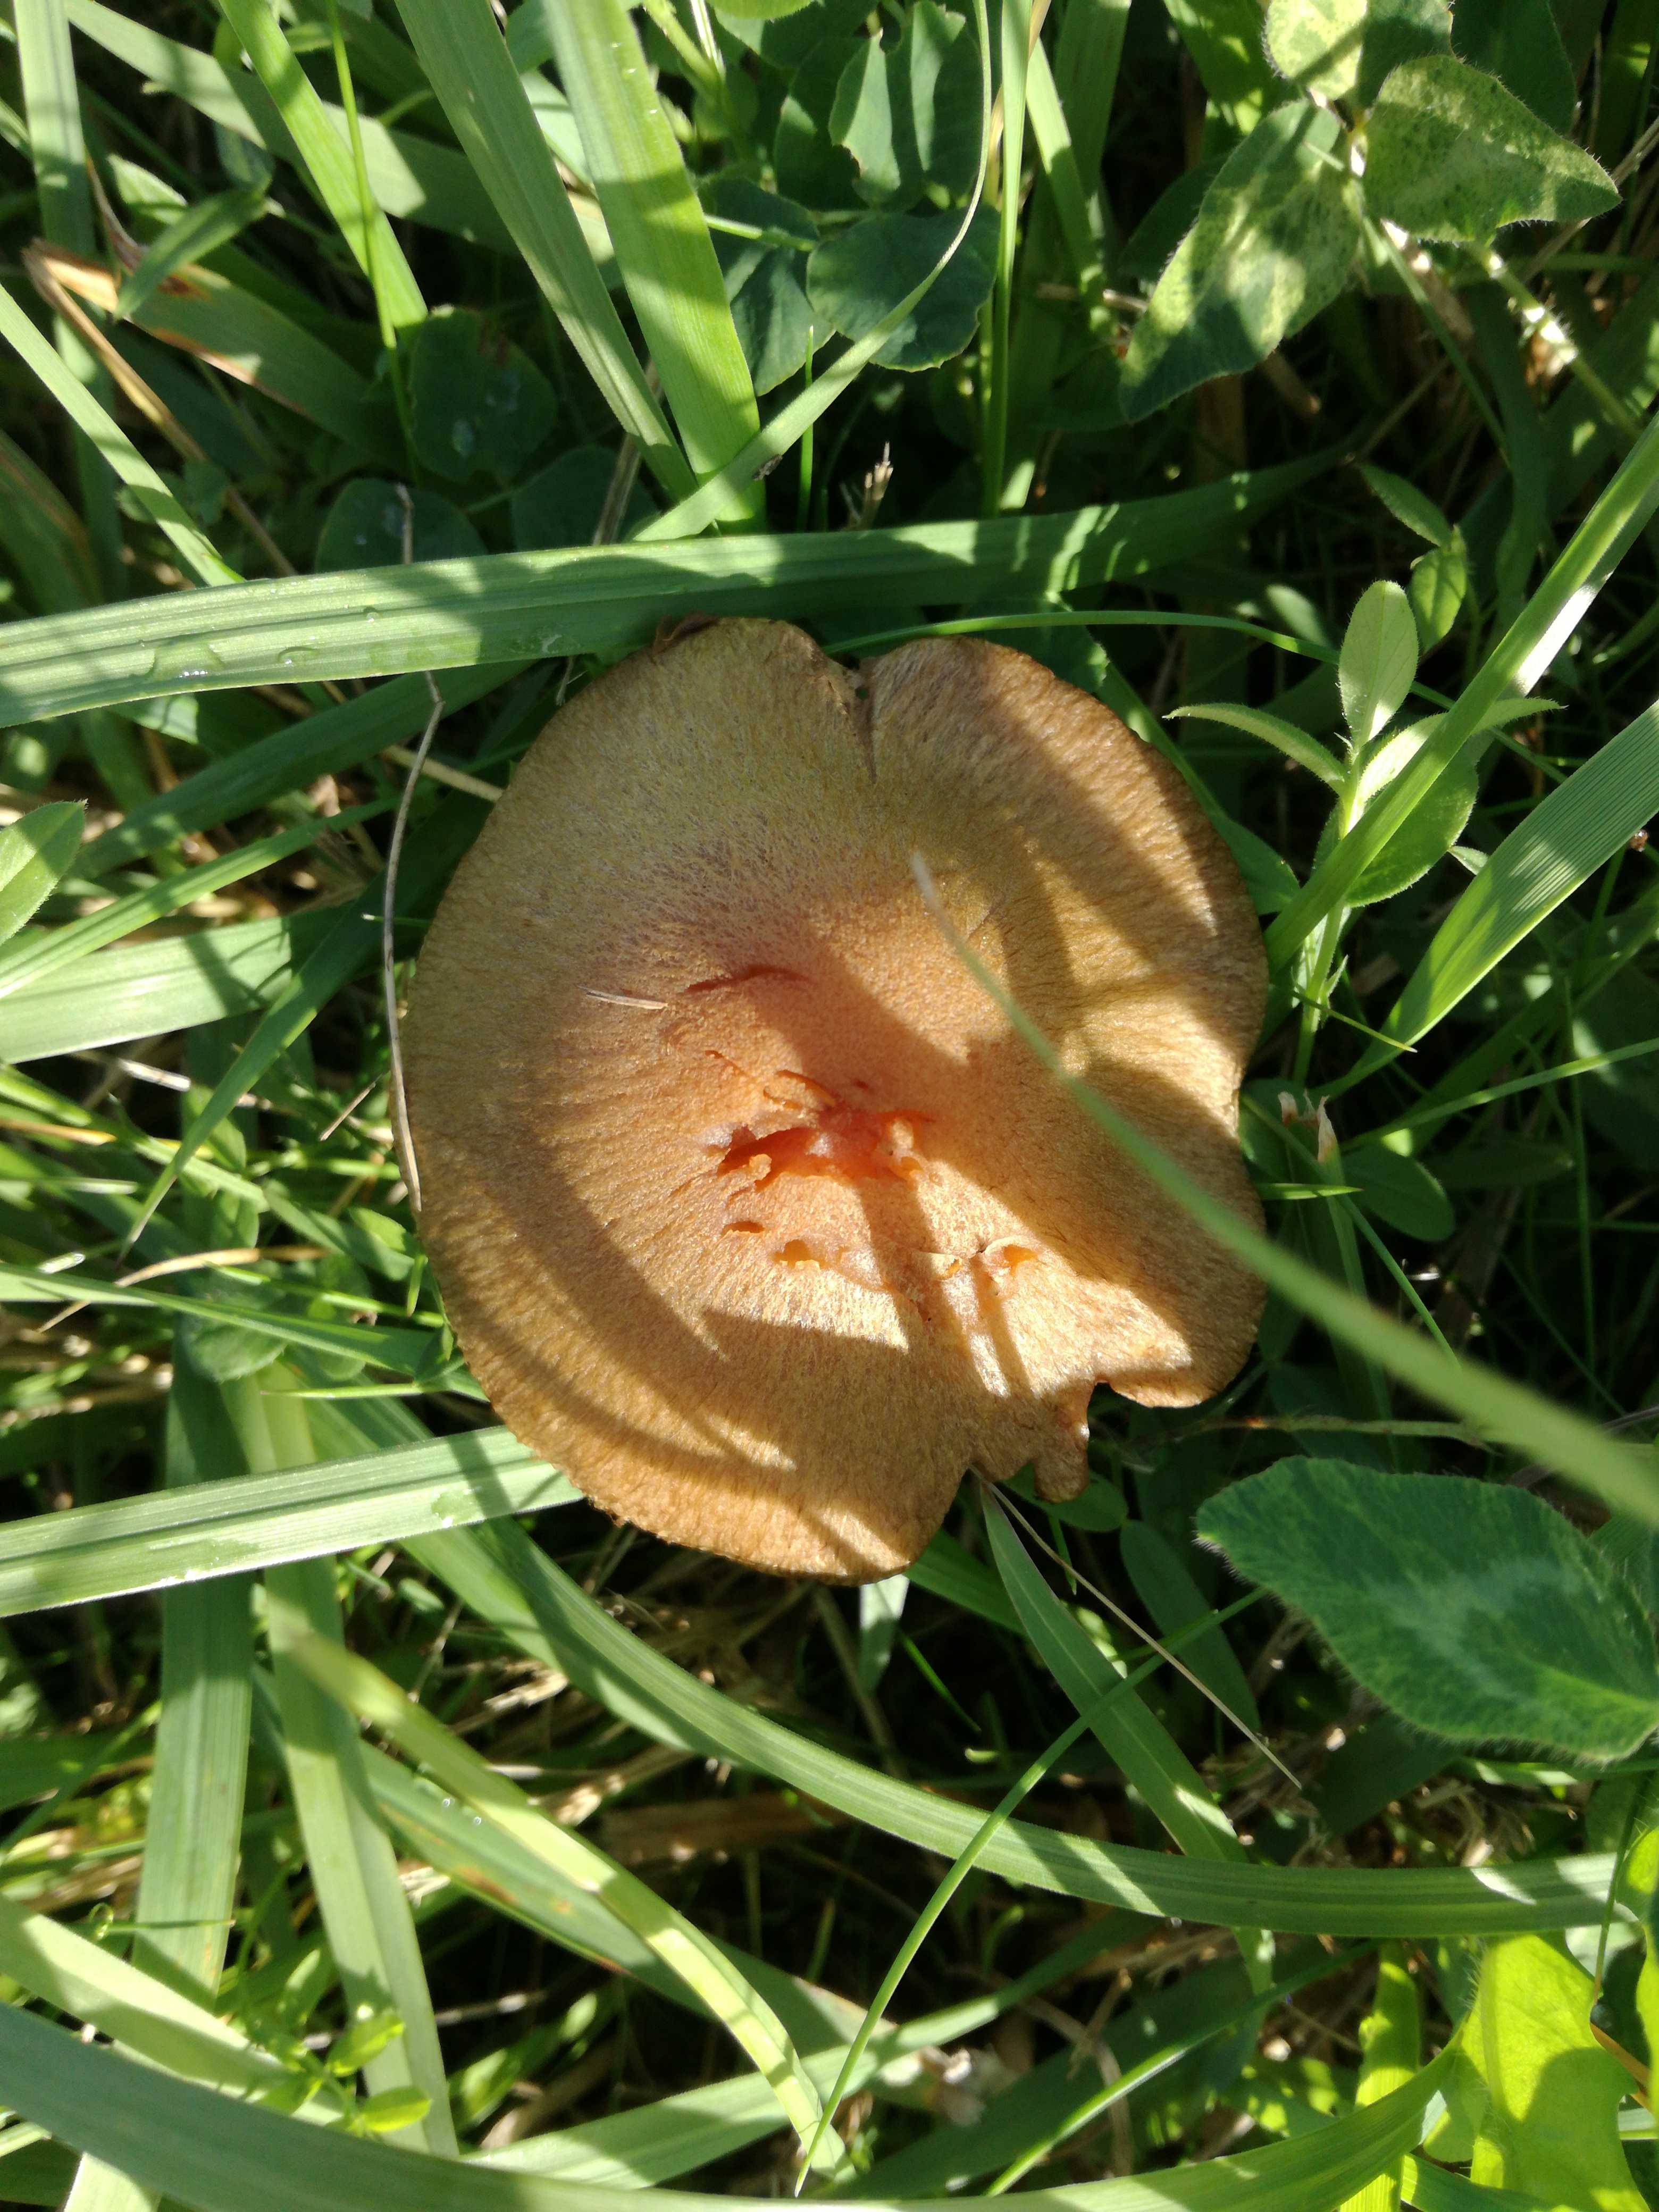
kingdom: Fungi
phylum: Basidiomycota
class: Agaricomycetes
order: Agaricales
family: Psathyrellaceae
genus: Lacrymaria
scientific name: Lacrymaria
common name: mørkhat
